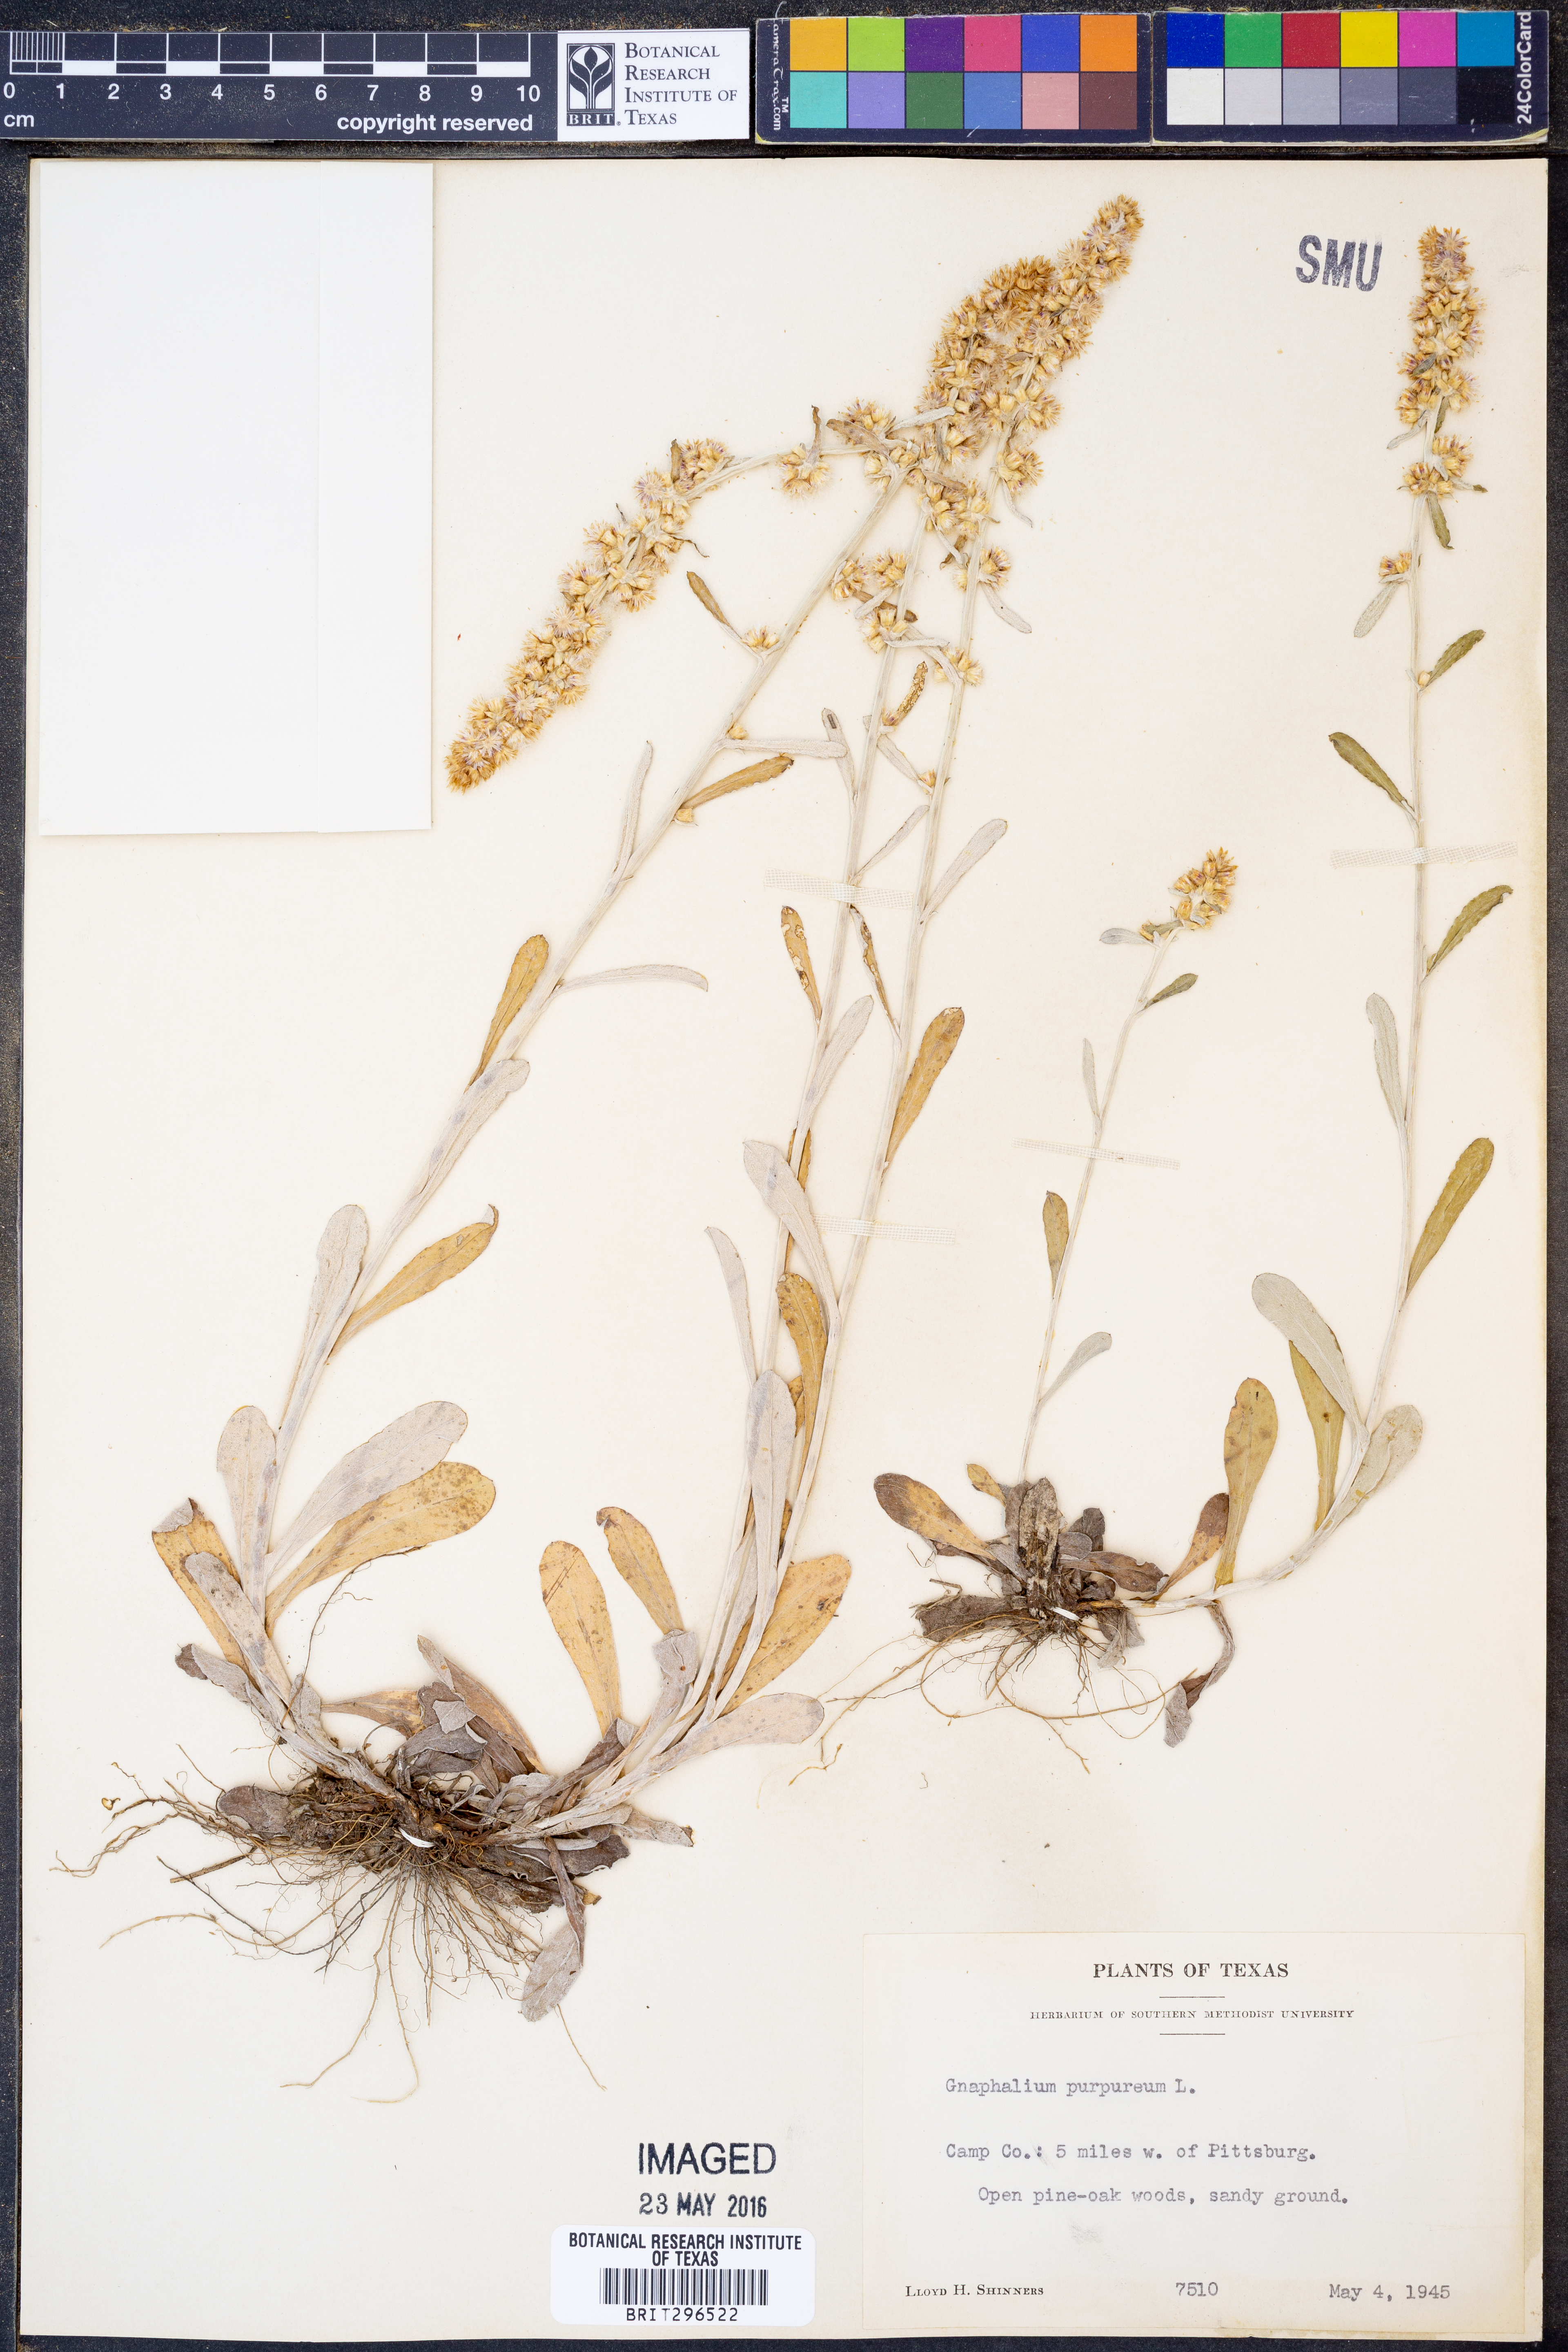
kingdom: Plantae
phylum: Tracheophyta
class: Magnoliopsida
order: Asterales
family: Asteraceae
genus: Gamochaeta
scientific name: Gamochaeta purpurea
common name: Purple cudweed
